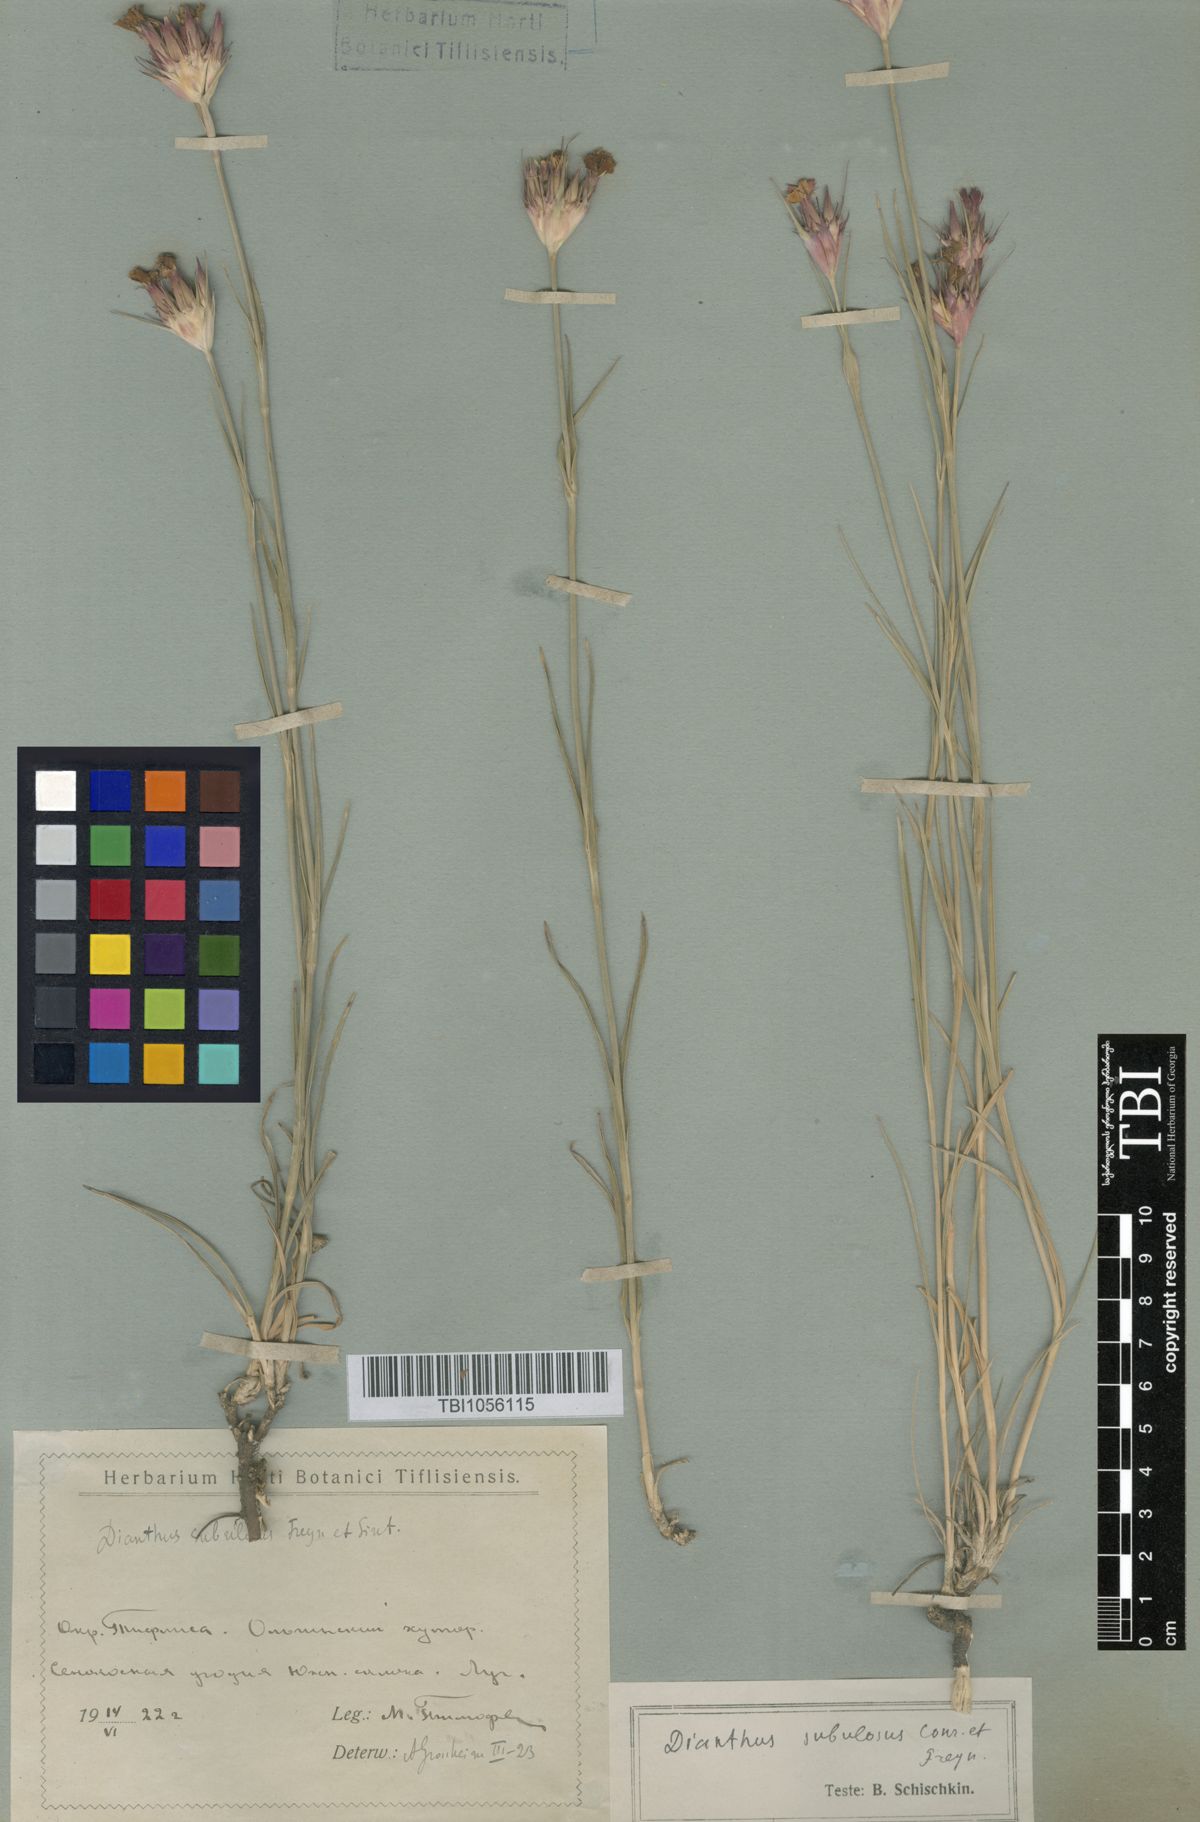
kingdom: Plantae
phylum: Tracheophyta
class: Magnoliopsida
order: Caryophyllales
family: Caryophyllaceae
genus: Dianthus
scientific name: Dianthus subulosus
